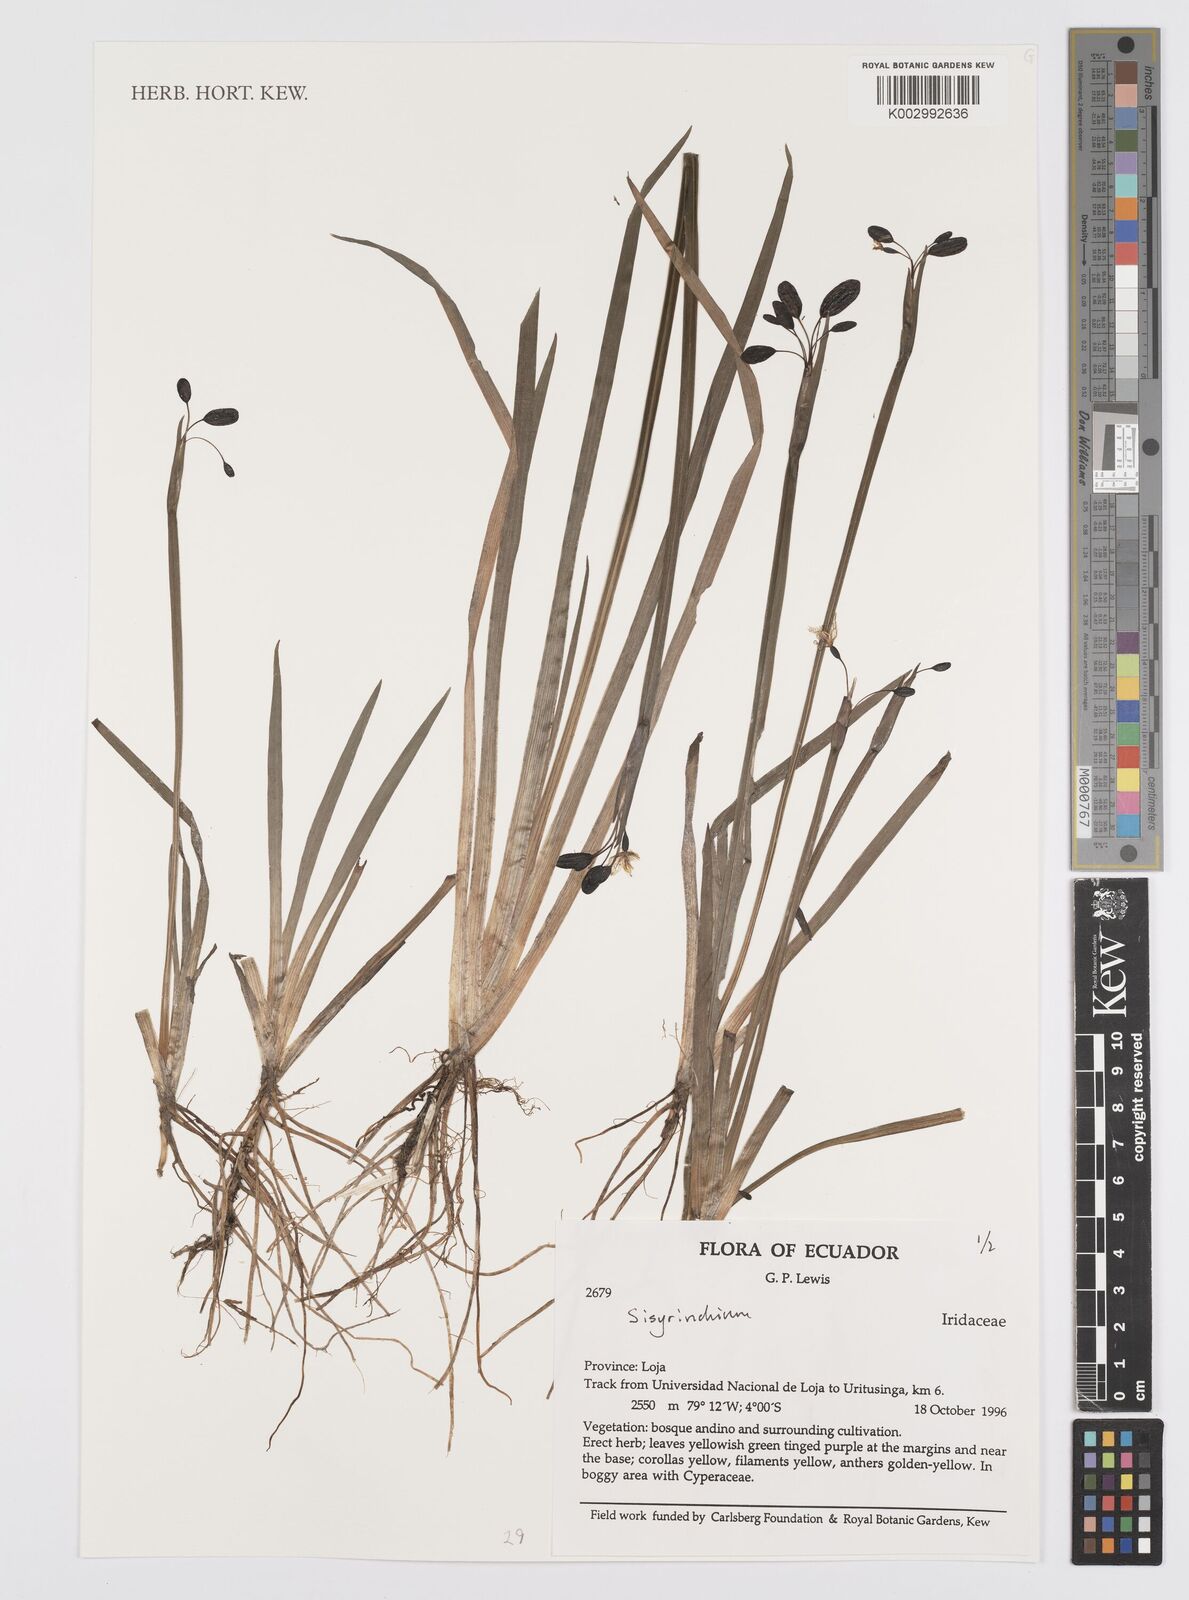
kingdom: Plantae
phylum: Tracheophyta
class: Liliopsida
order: Asparagales
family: Iridaceae
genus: Sisyrinchium
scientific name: Sisyrinchium
